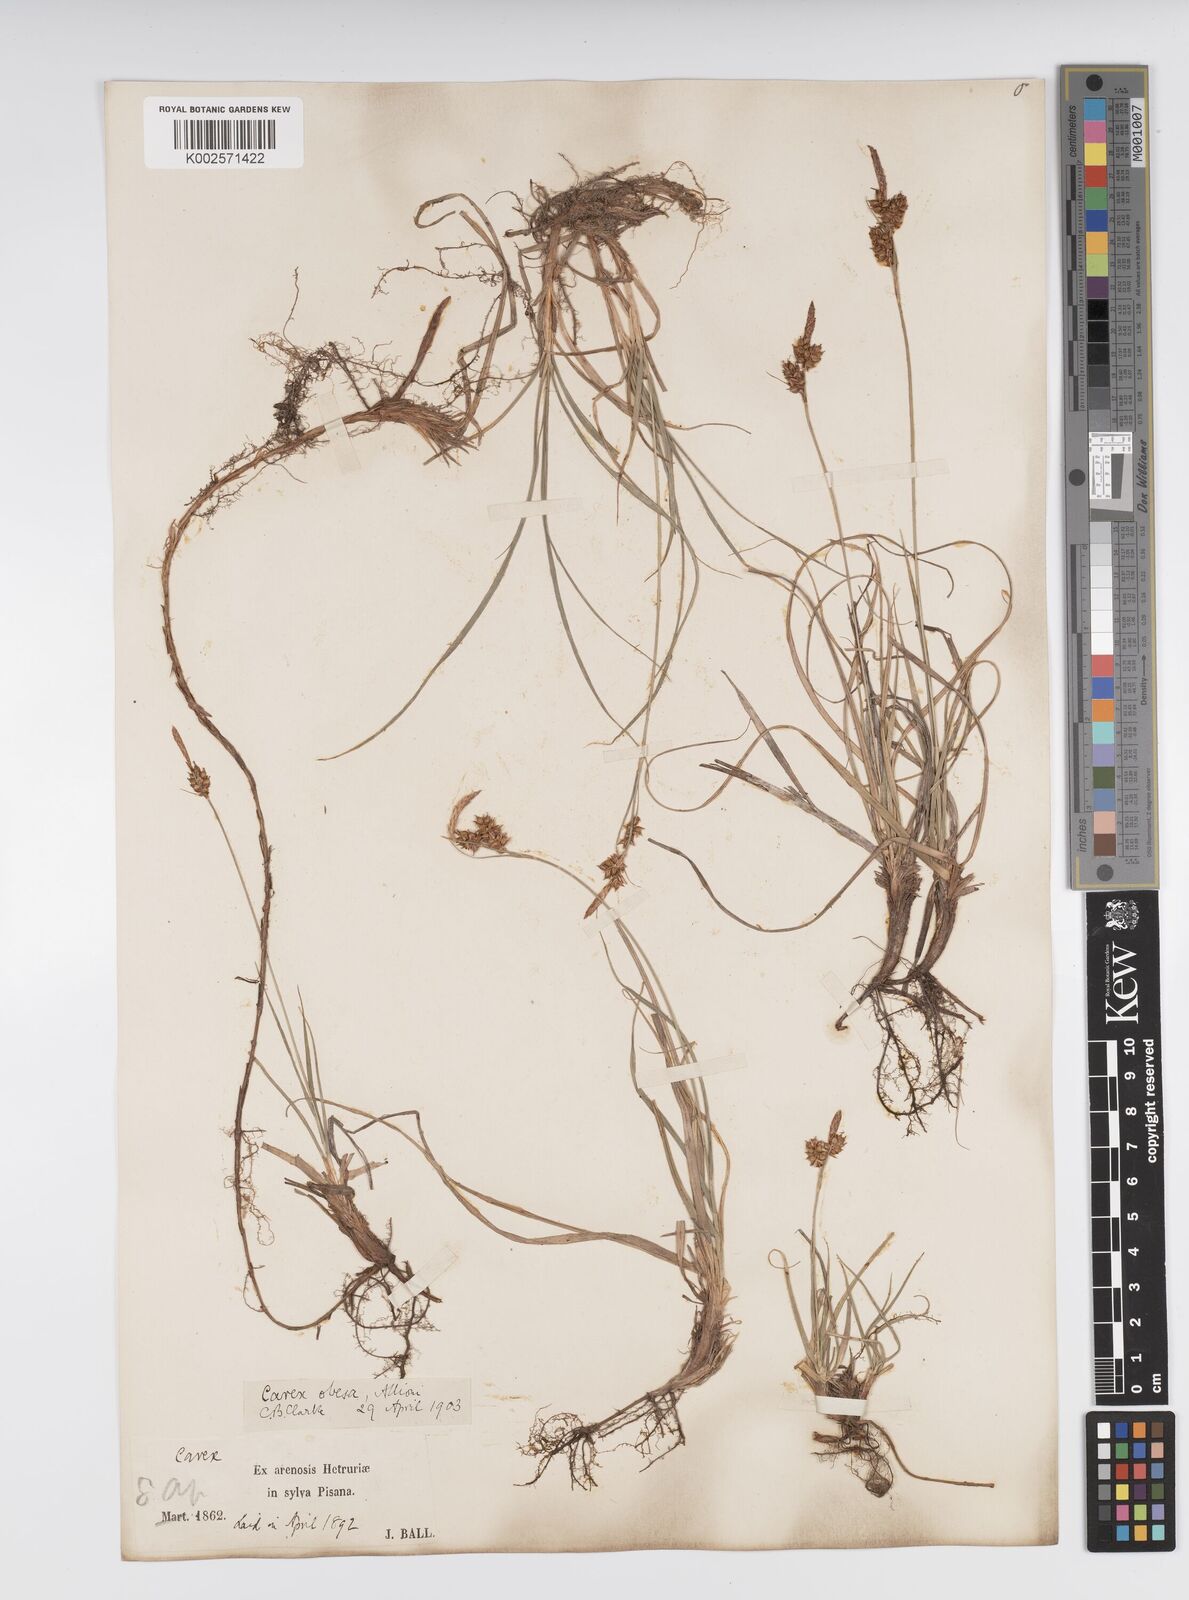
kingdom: Plantae
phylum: Tracheophyta
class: Liliopsida
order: Poales
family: Cyperaceae
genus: Carex
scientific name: Carex liparocarpos
